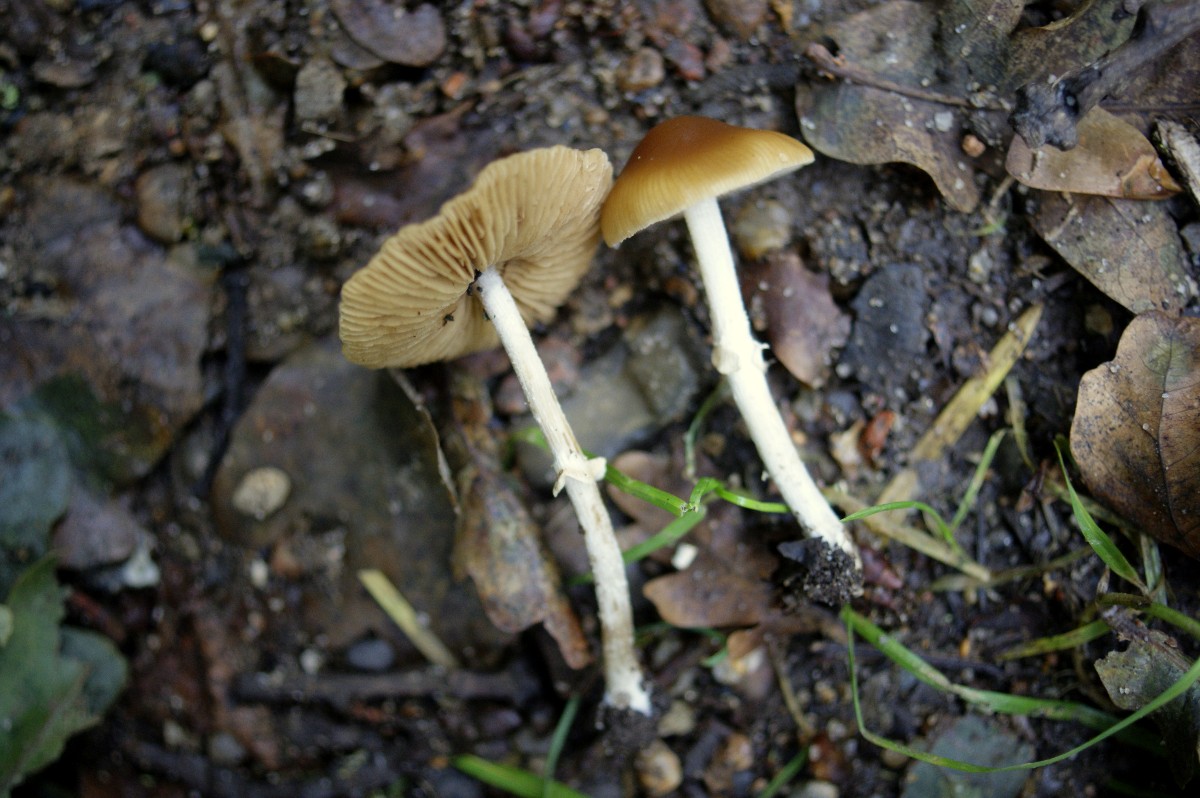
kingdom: Fungi
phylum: Basidiomycota
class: Agaricomycetes
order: Agaricales
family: Bolbitiaceae
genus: Conocybe
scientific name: Conocybe arrhenii
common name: ring-dansehat
